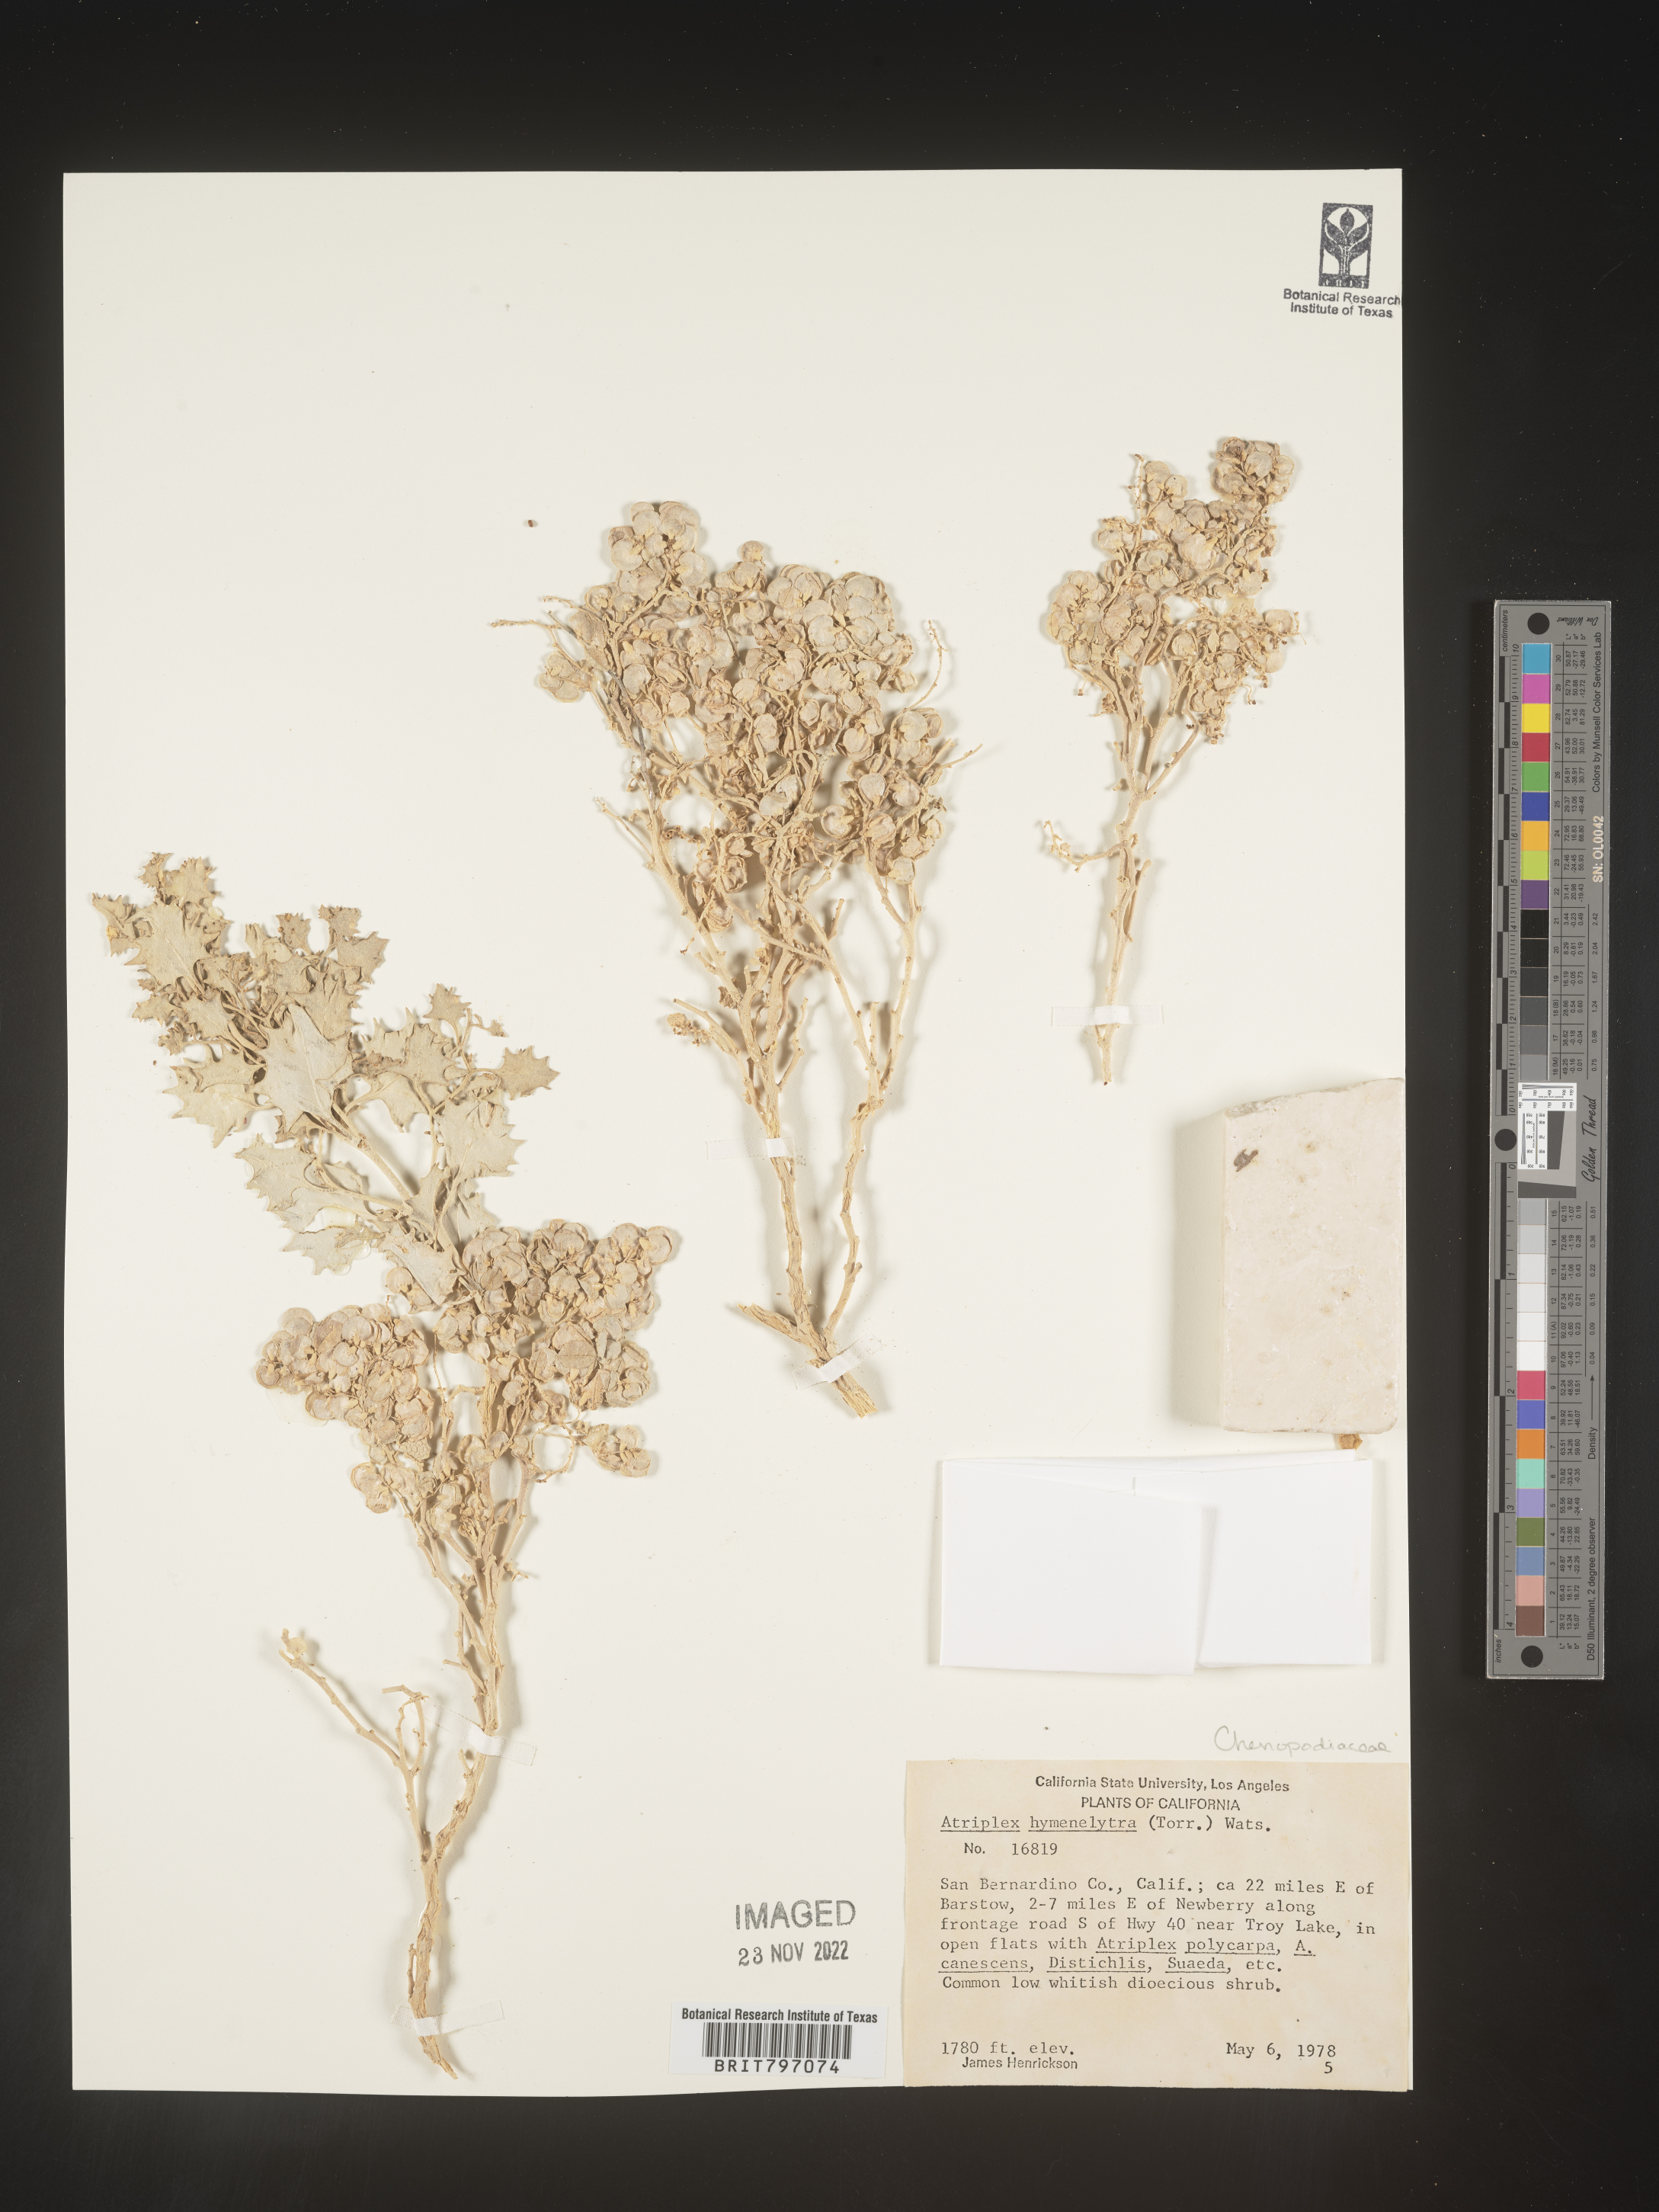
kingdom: Plantae
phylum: Tracheophyta
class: Magnoliopsida
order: Caryophyllales
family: Amaranthaceae
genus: Atriplex
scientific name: Atriplex
